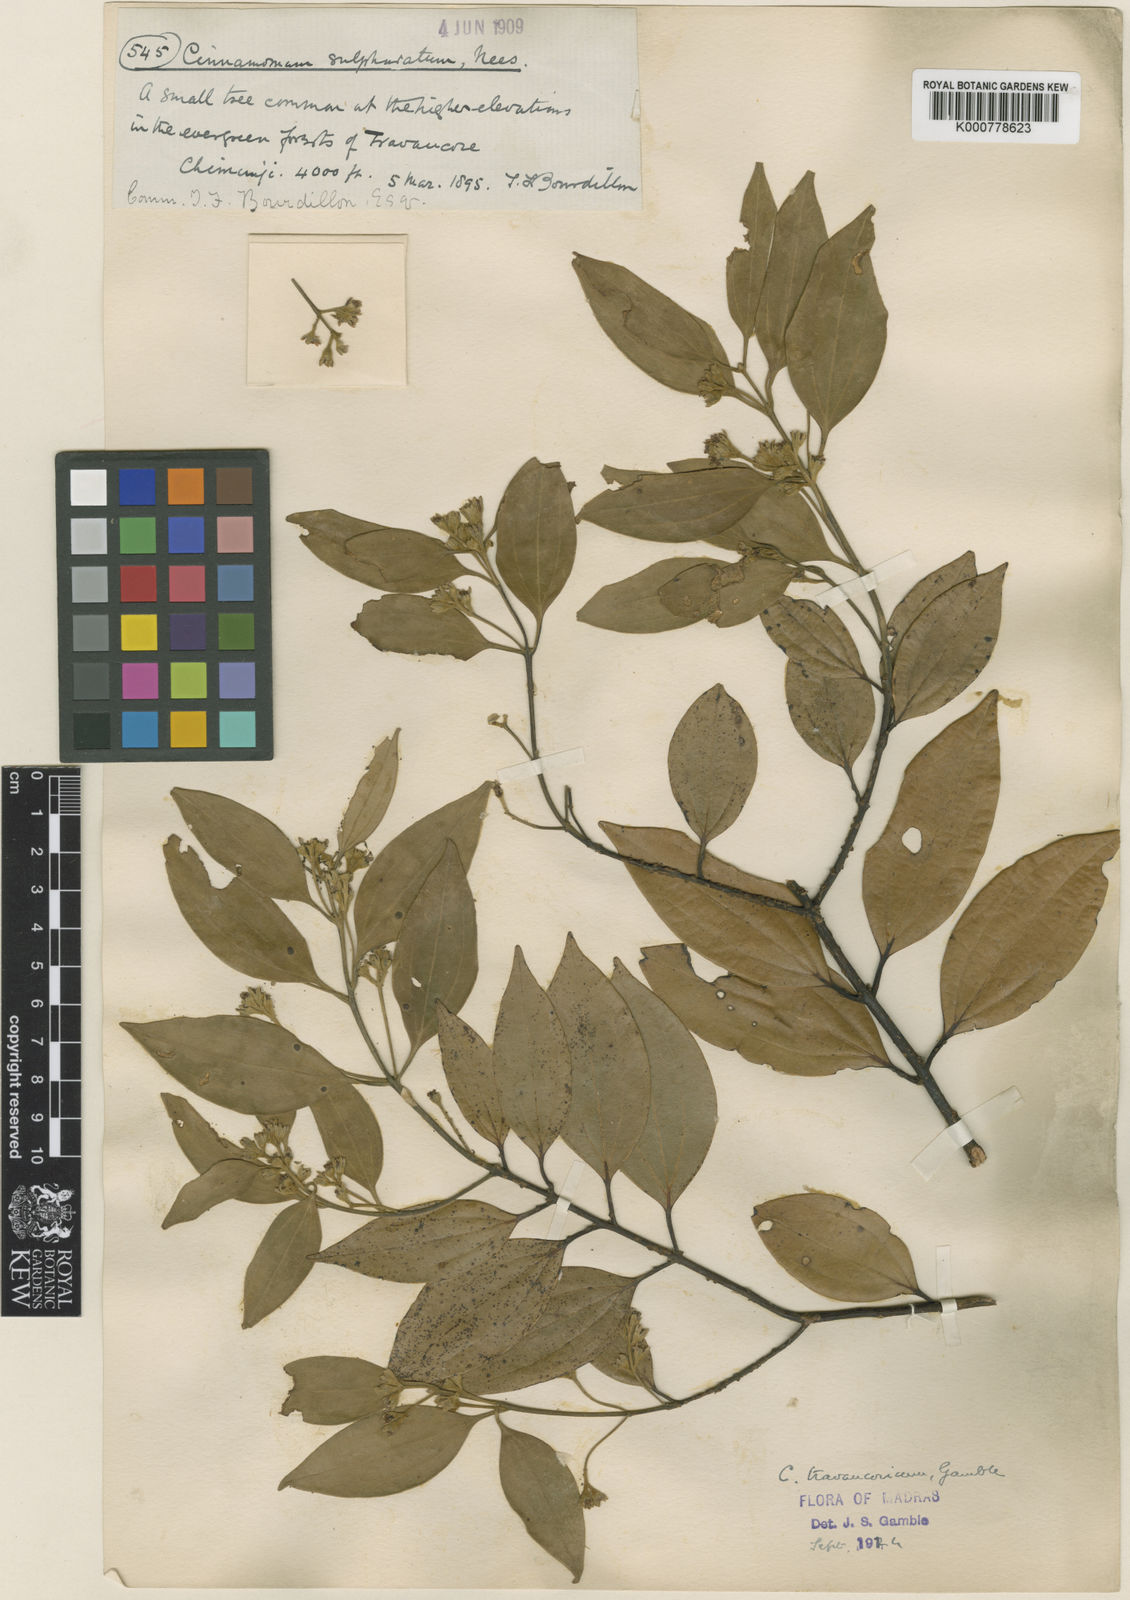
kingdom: Plantae
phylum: Tracheophyta
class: Magnoliopsida
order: Laurales
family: Lauraceae
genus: Cinnamomum
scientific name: Cinnamomum travancoricum
